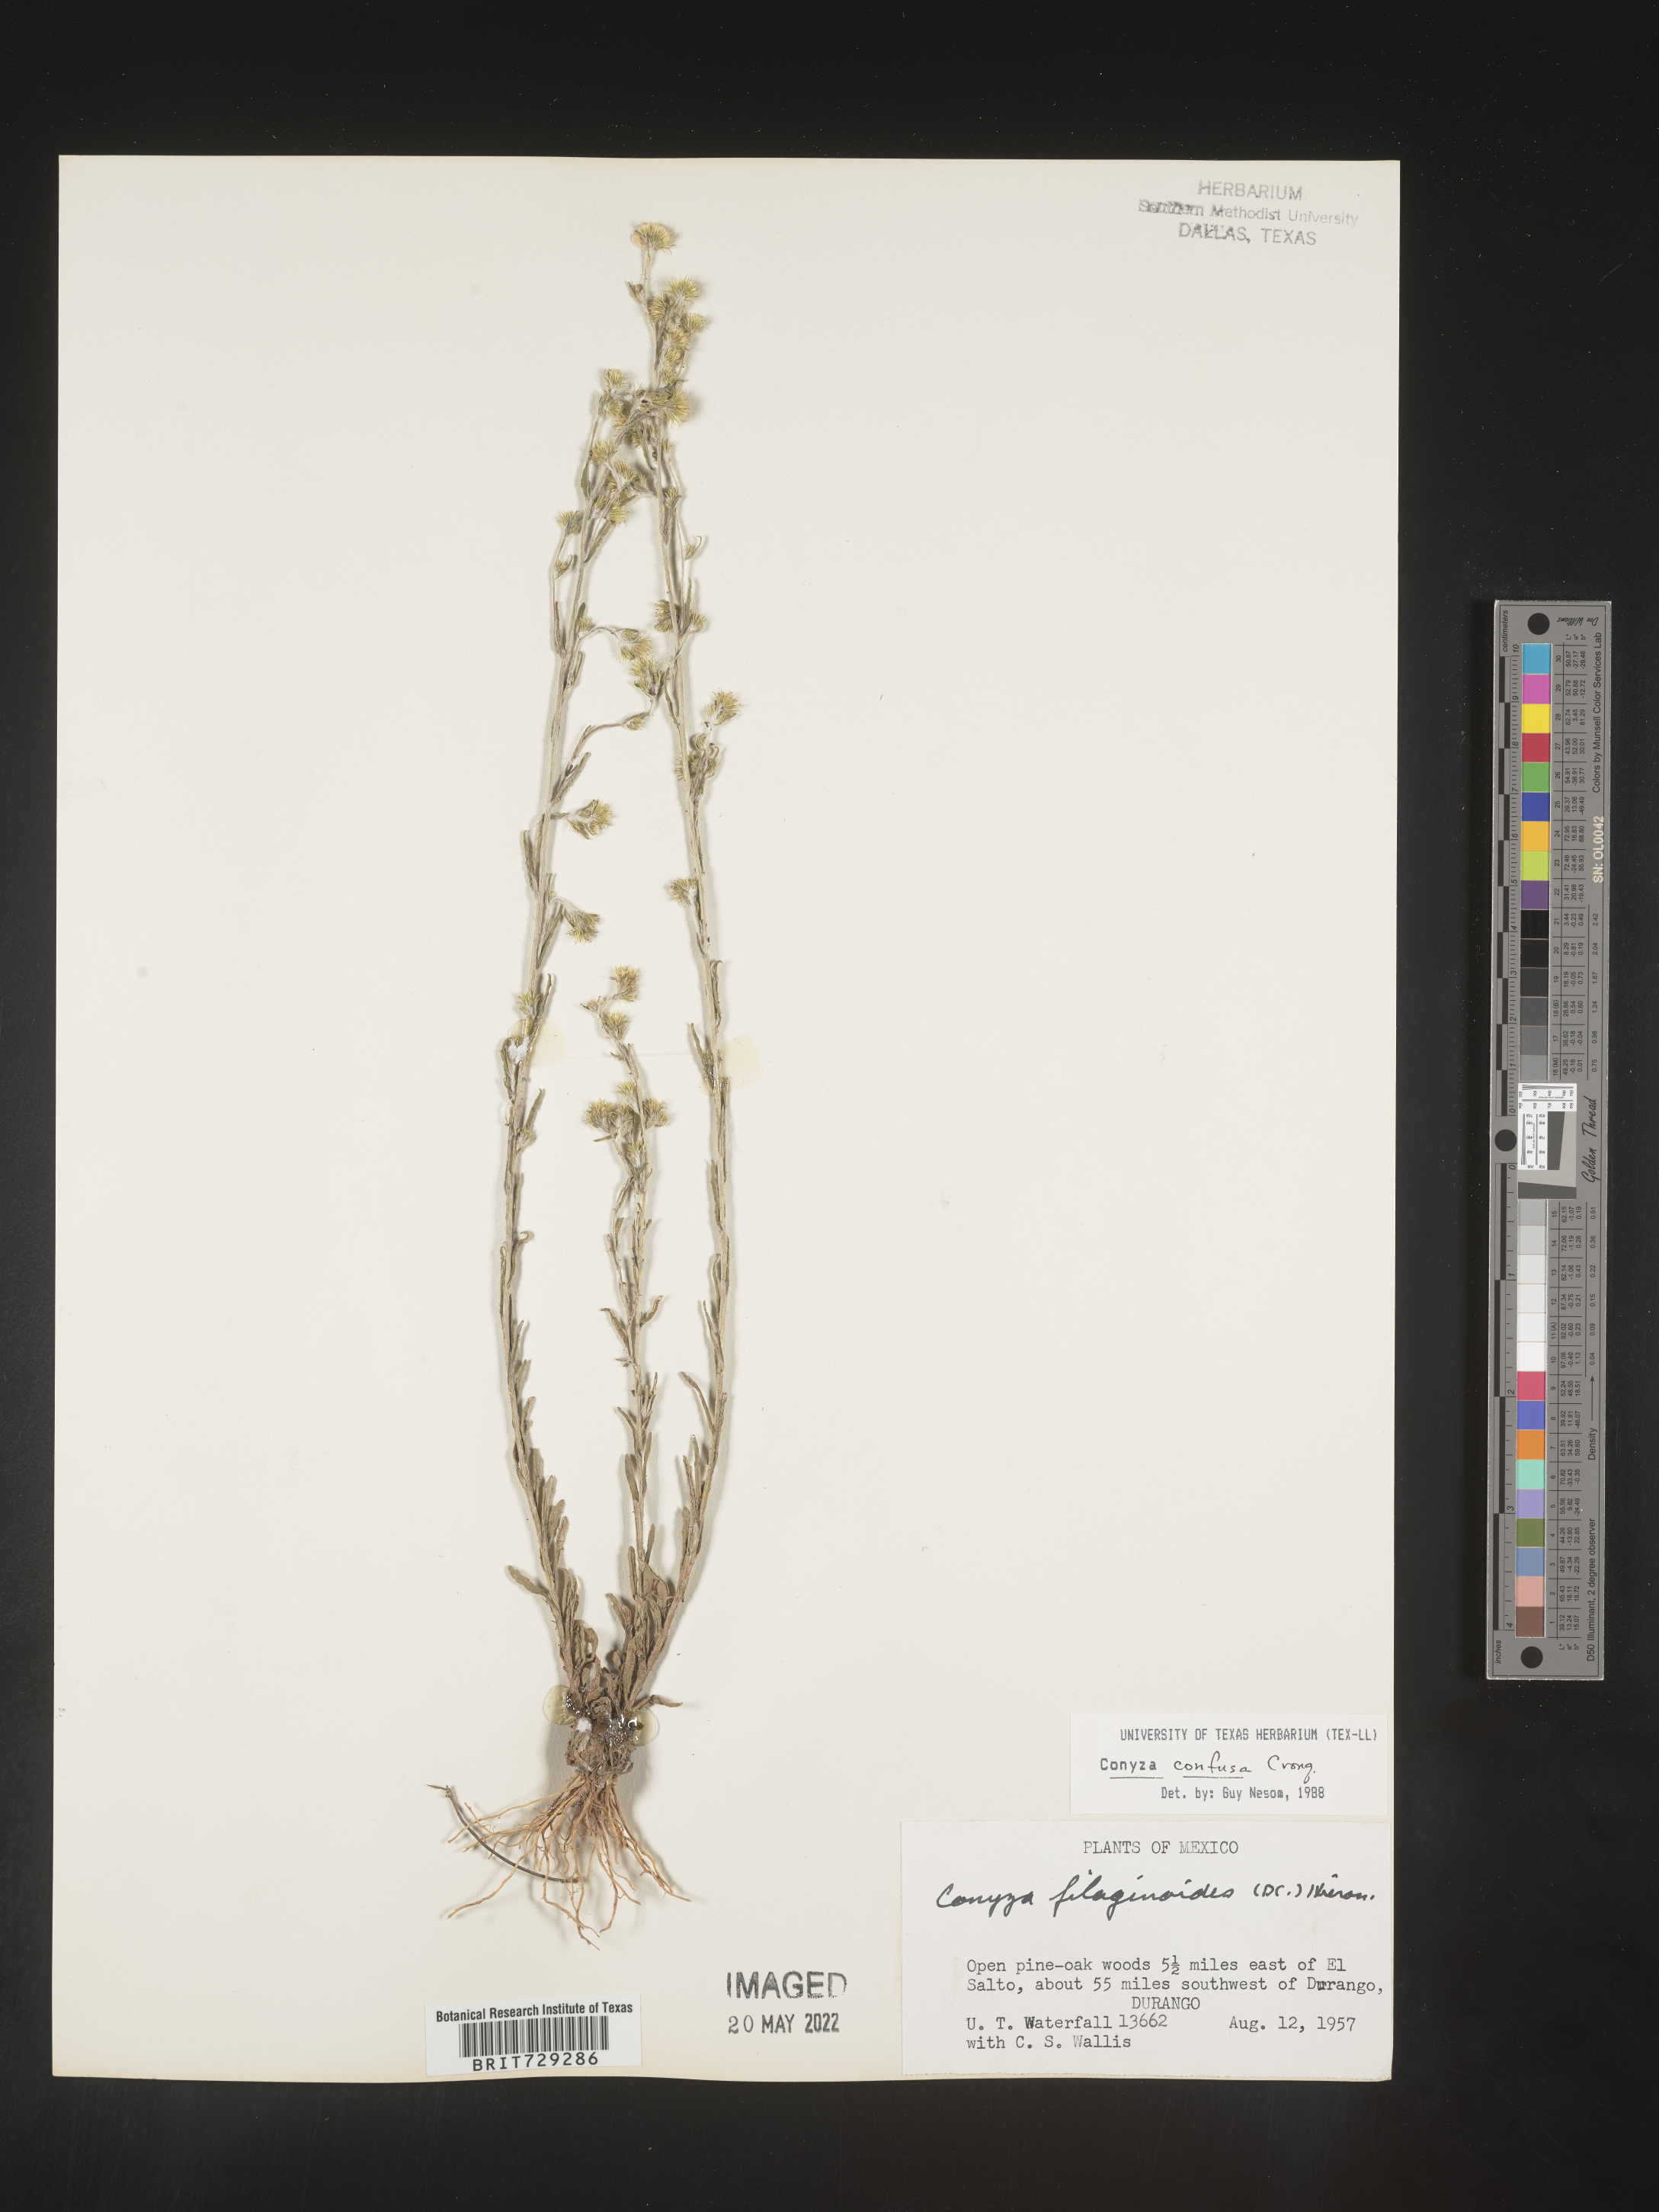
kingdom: Plantae
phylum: Tracheophyta
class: Magnoliopsida
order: Asterales
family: Asteraceae
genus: Laennecia
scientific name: Laennecia
